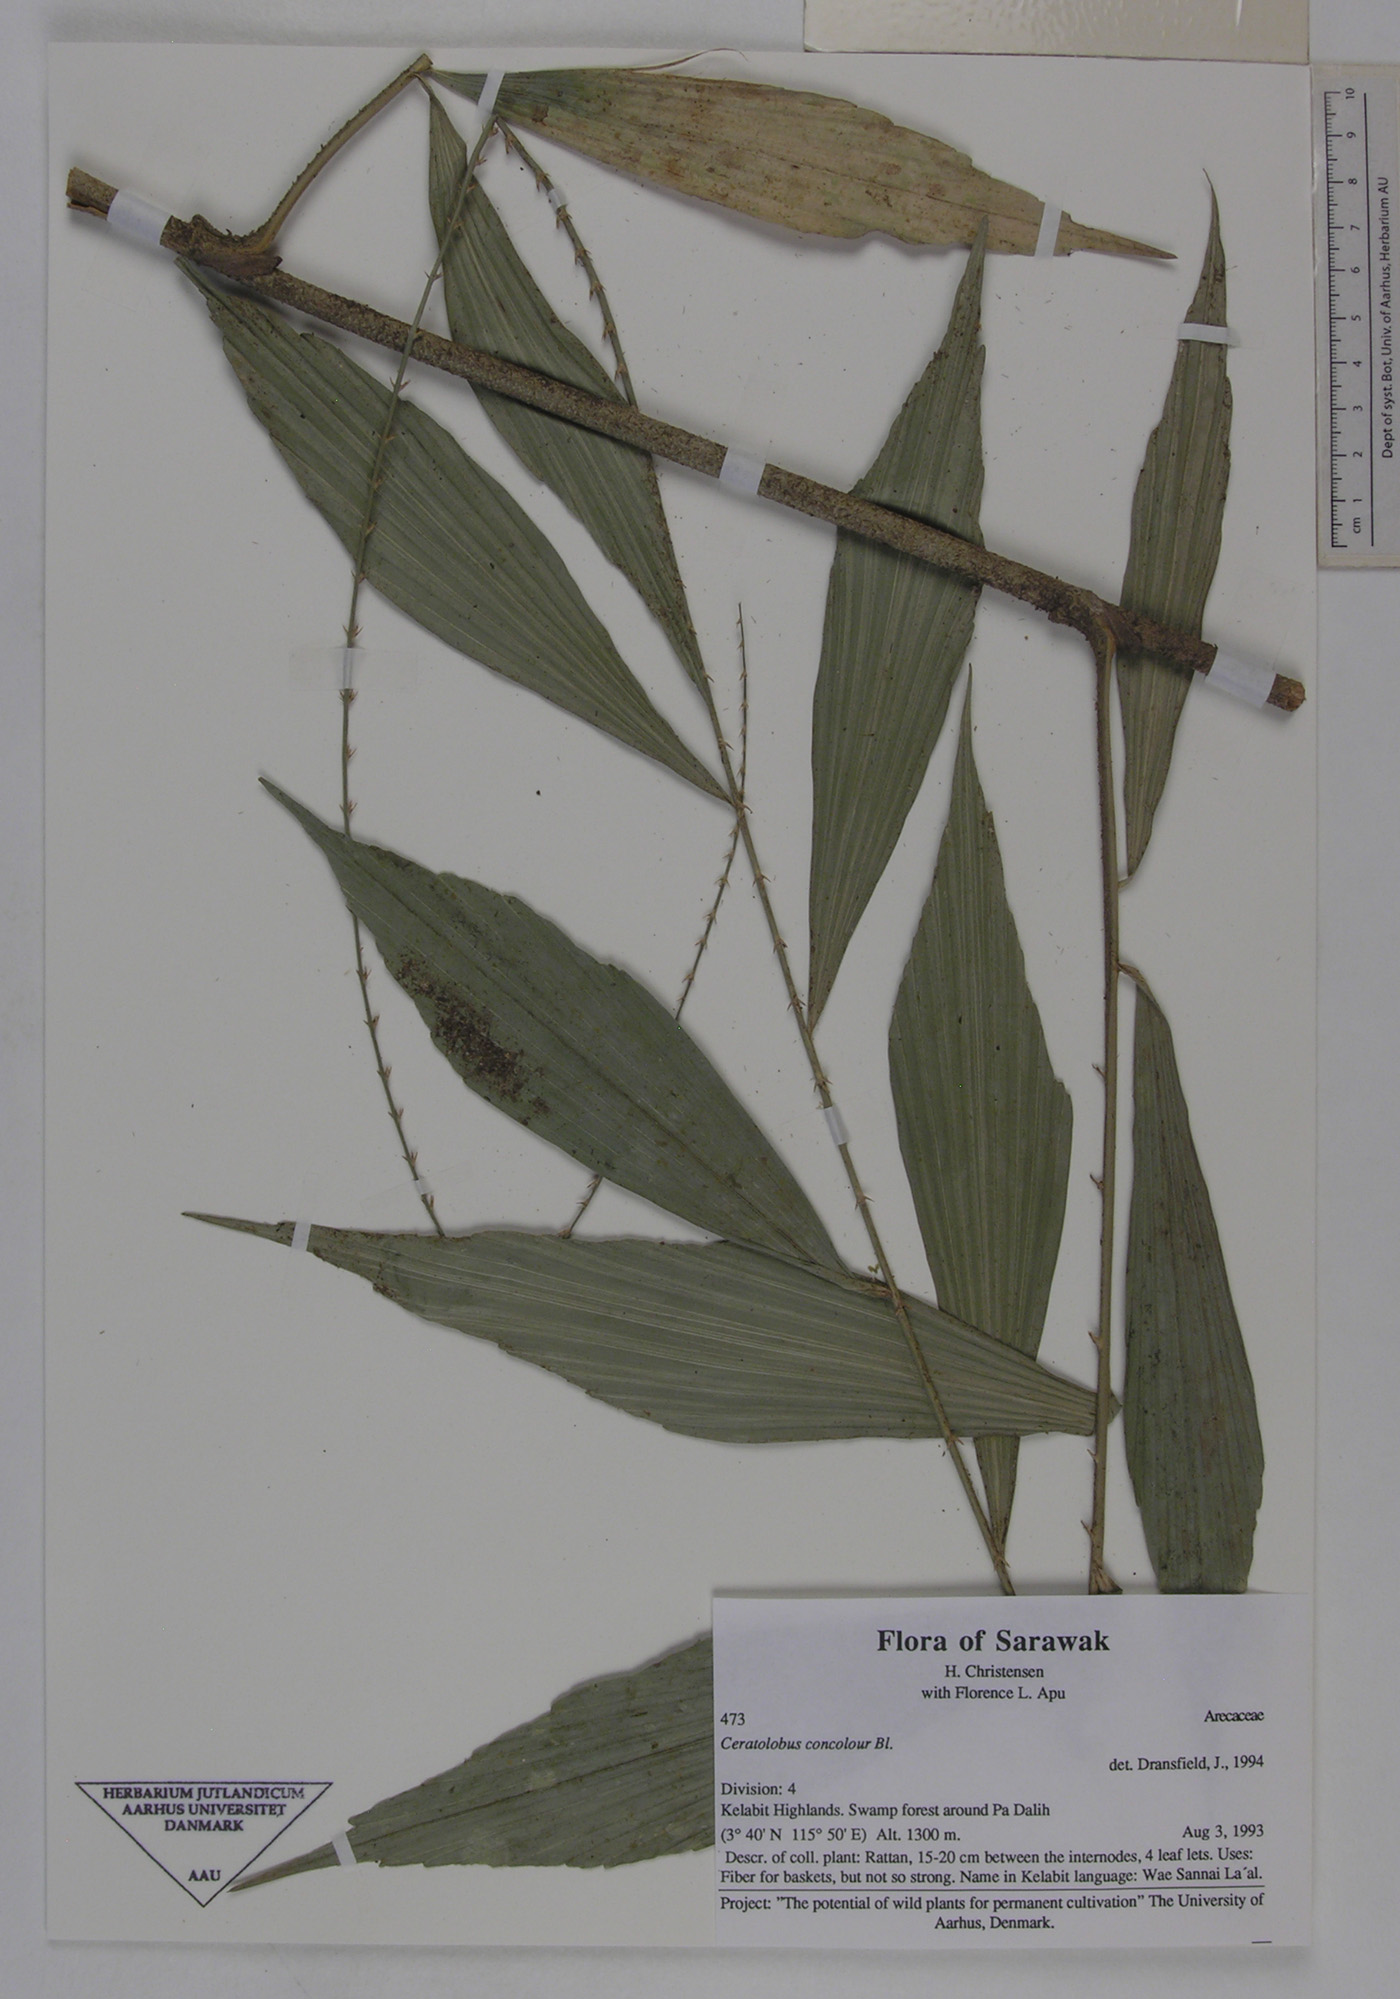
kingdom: Plantae
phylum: Tracheophyta
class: Liliopsida
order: Arecales
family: Arecaceae
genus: Calamus
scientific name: Calamus concolor
